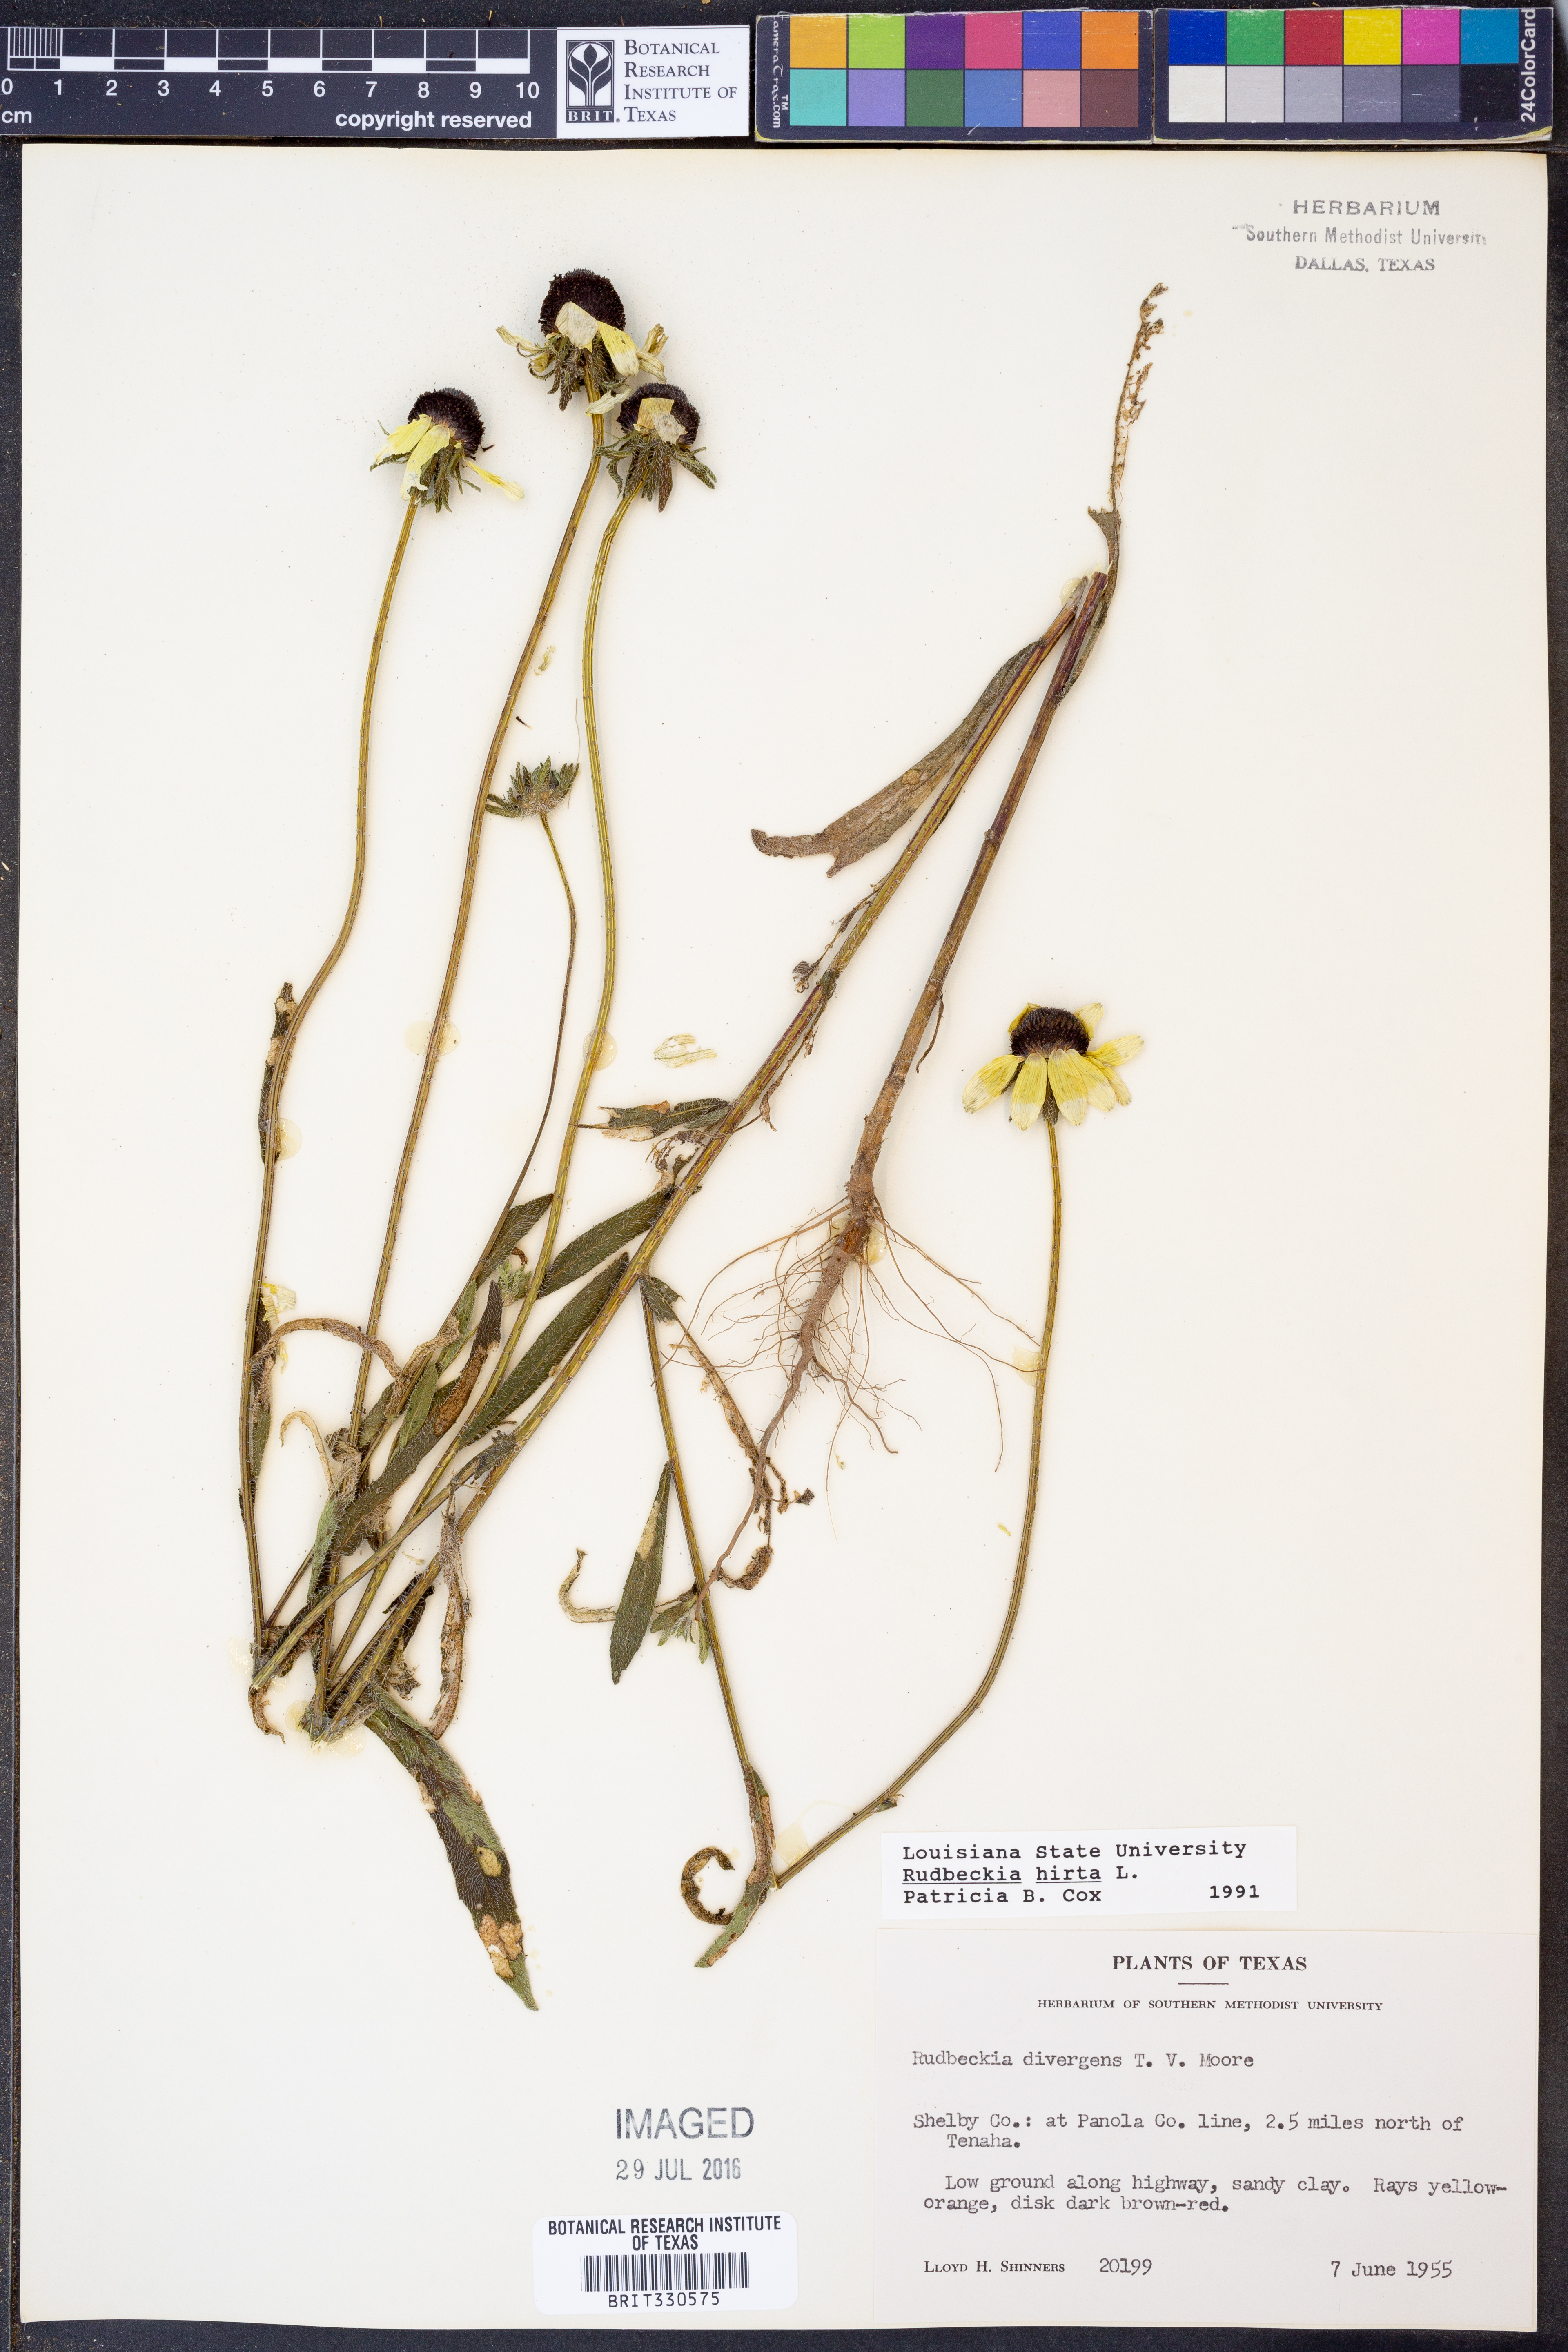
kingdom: Plantae
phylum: Tracheophyta
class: Magnoliopsida
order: Asterales
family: Asteraceae
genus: Rudbeckia
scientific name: Rudbeckia hirta
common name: Black-eyed-susan
